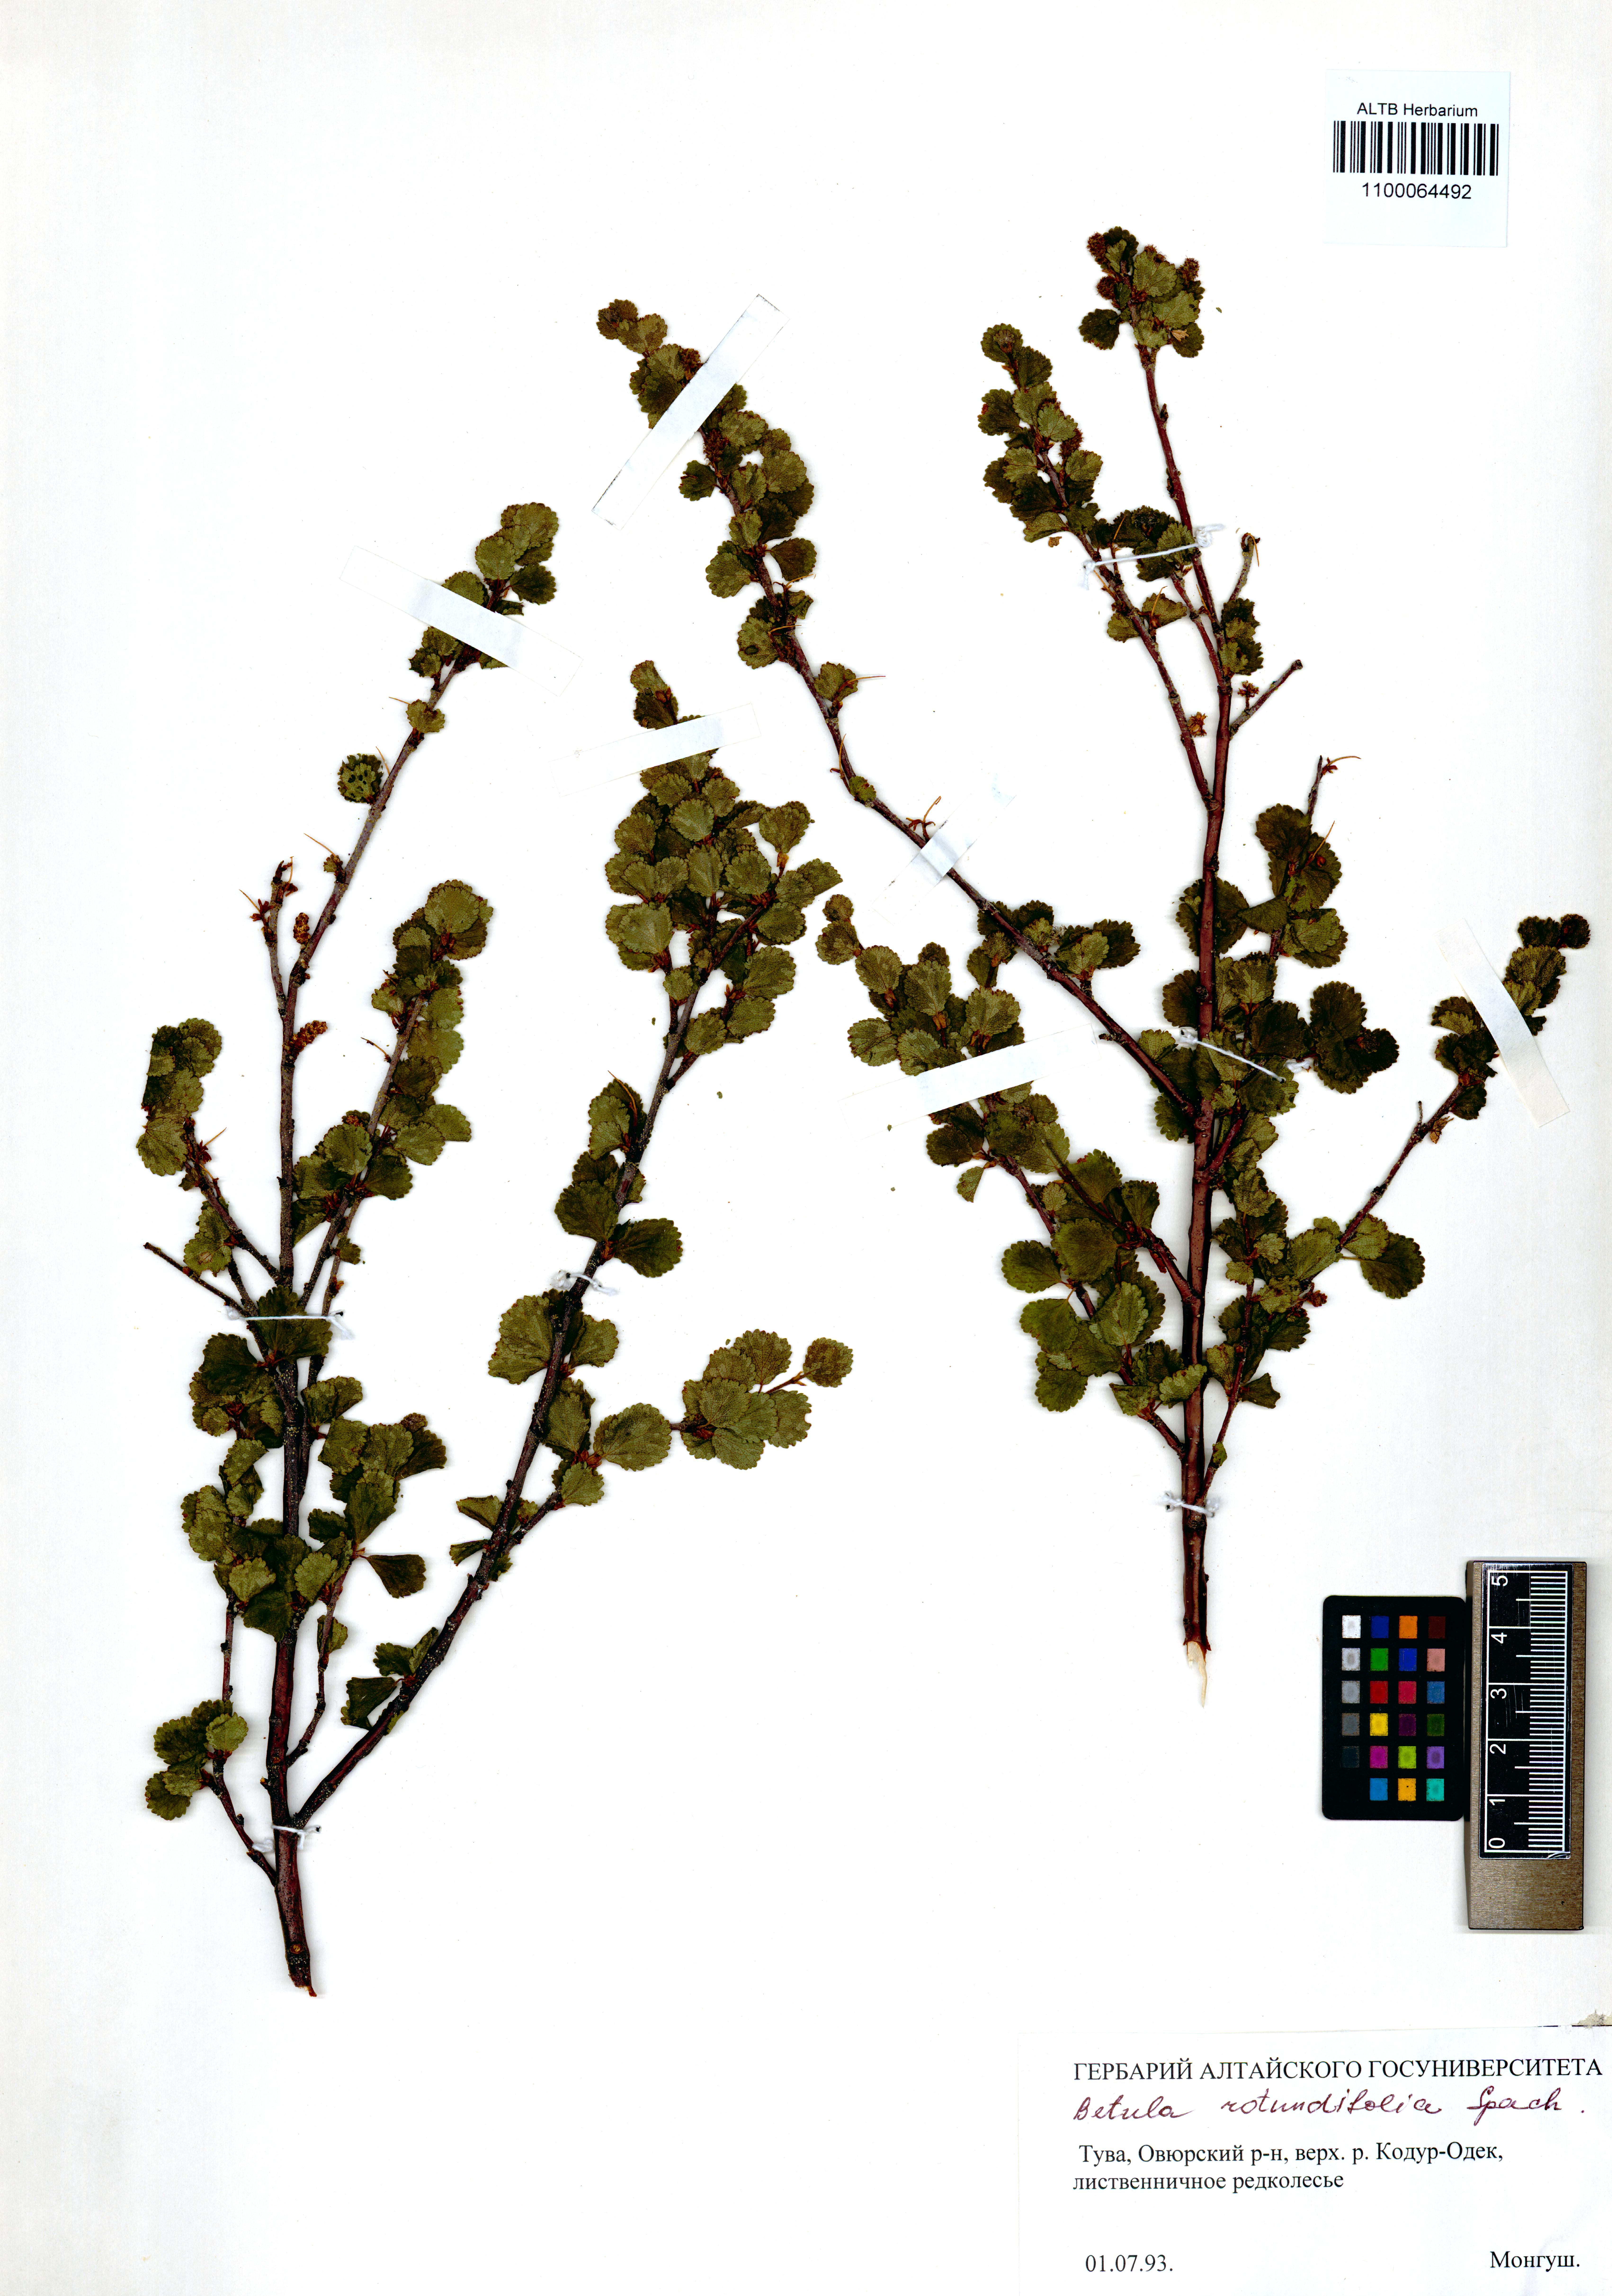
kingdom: Plantae
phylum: Tracheophyta
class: Magnoliopsida
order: Fagales
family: Betulaceae
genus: Betula
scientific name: Betula glandulosa
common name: Dwarf birch
